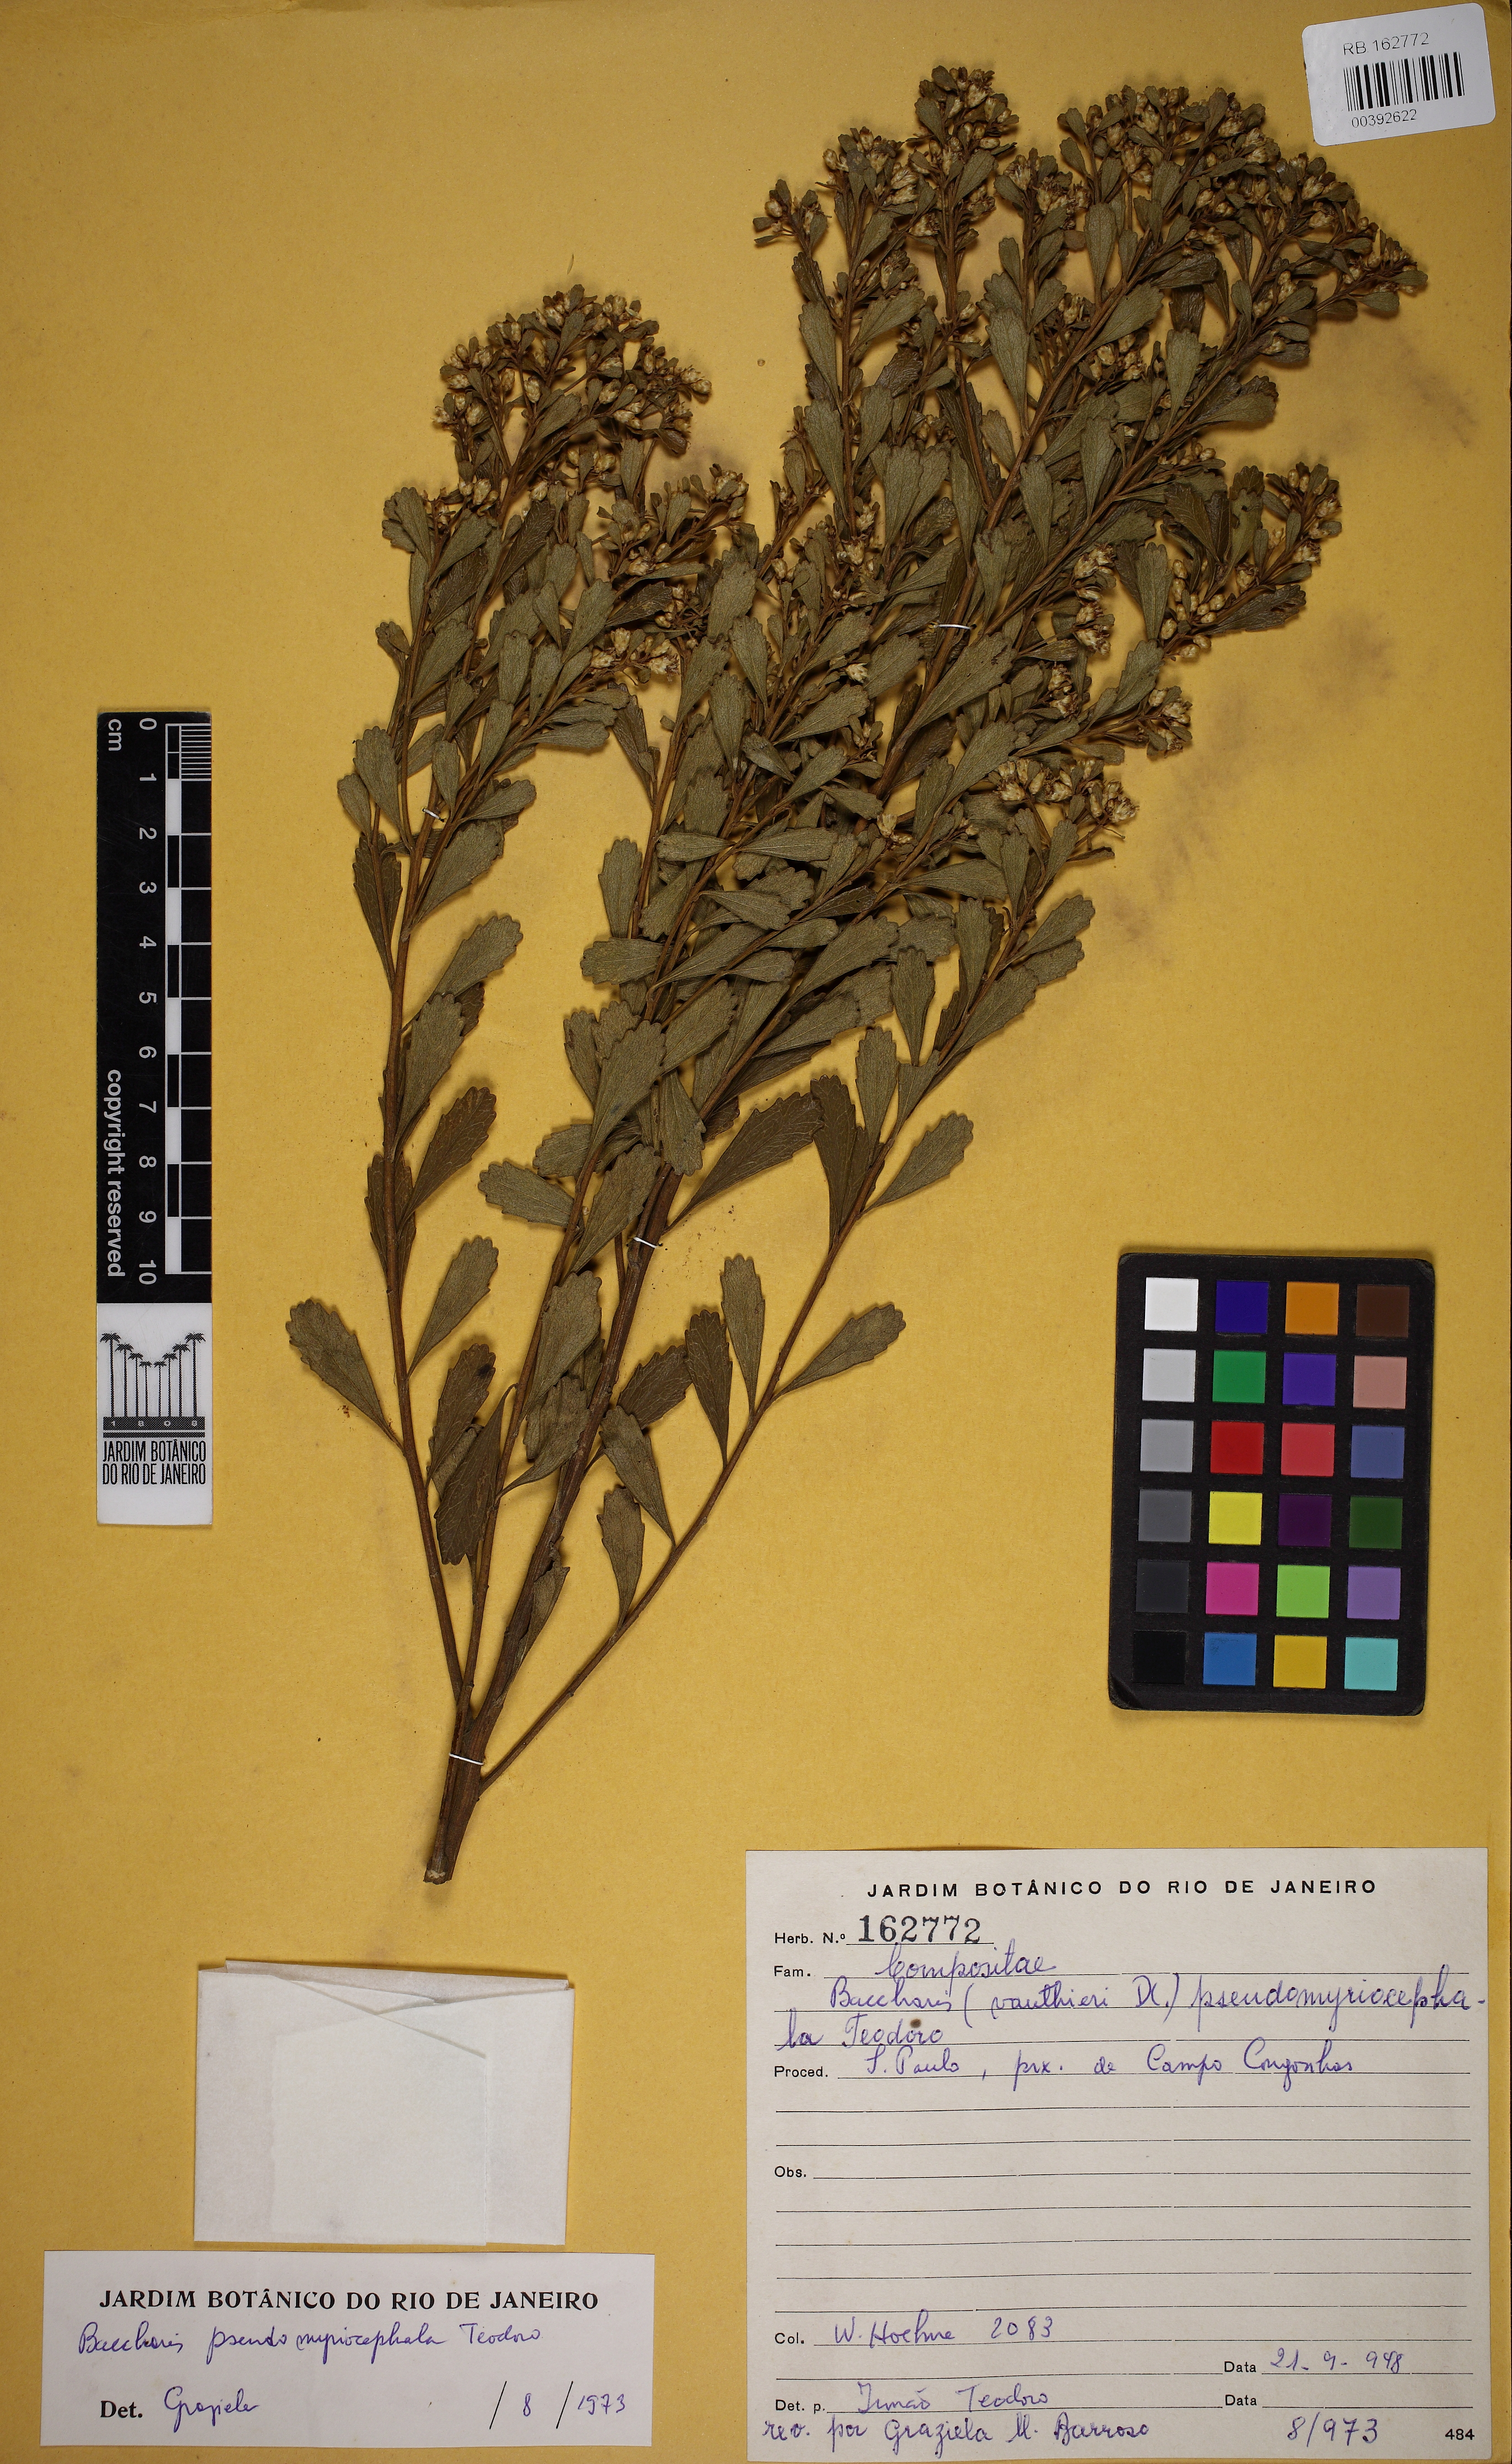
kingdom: Plantae
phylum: Tracheophyta
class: Magnoliopsida
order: Asterales
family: Asteraceae
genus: Baccharis
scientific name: Baccharis pseudomyriocephala
